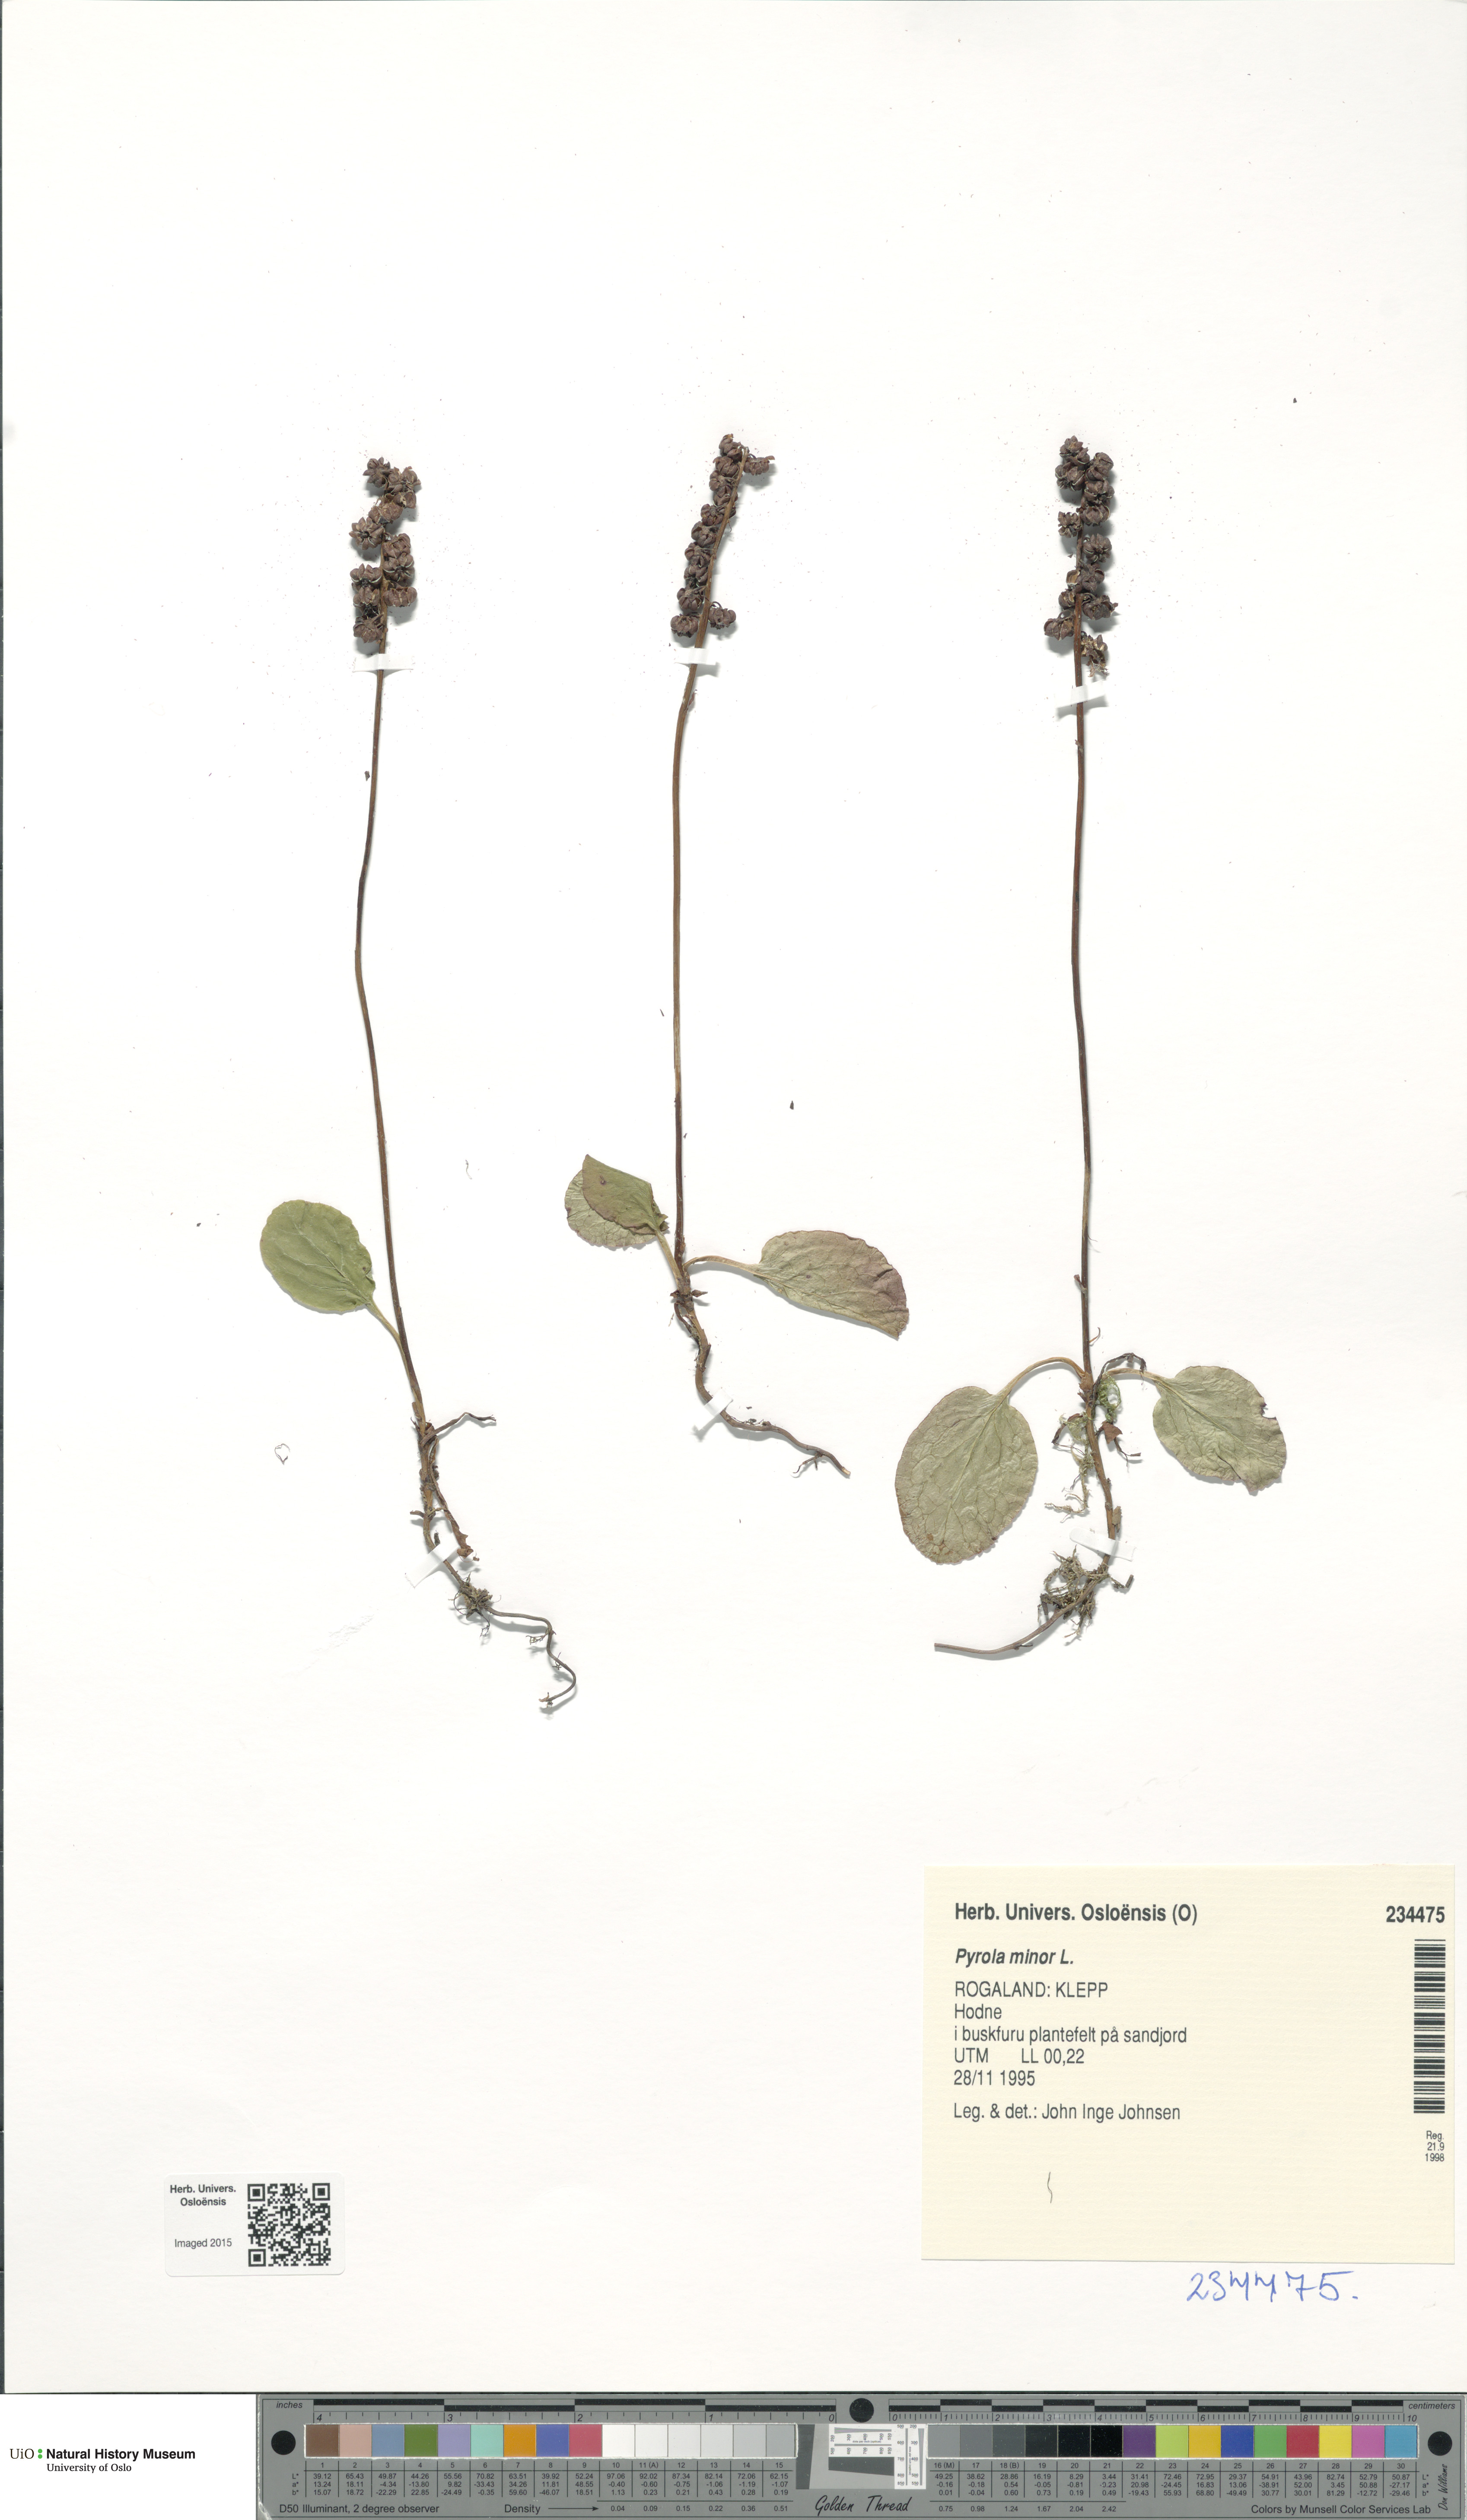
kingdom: Plantae
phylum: Tracheophyta
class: Magnoliopsida
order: Ericales
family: Ericaceae
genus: Pyrola
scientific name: Pyrola minor
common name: Common wintergreen
